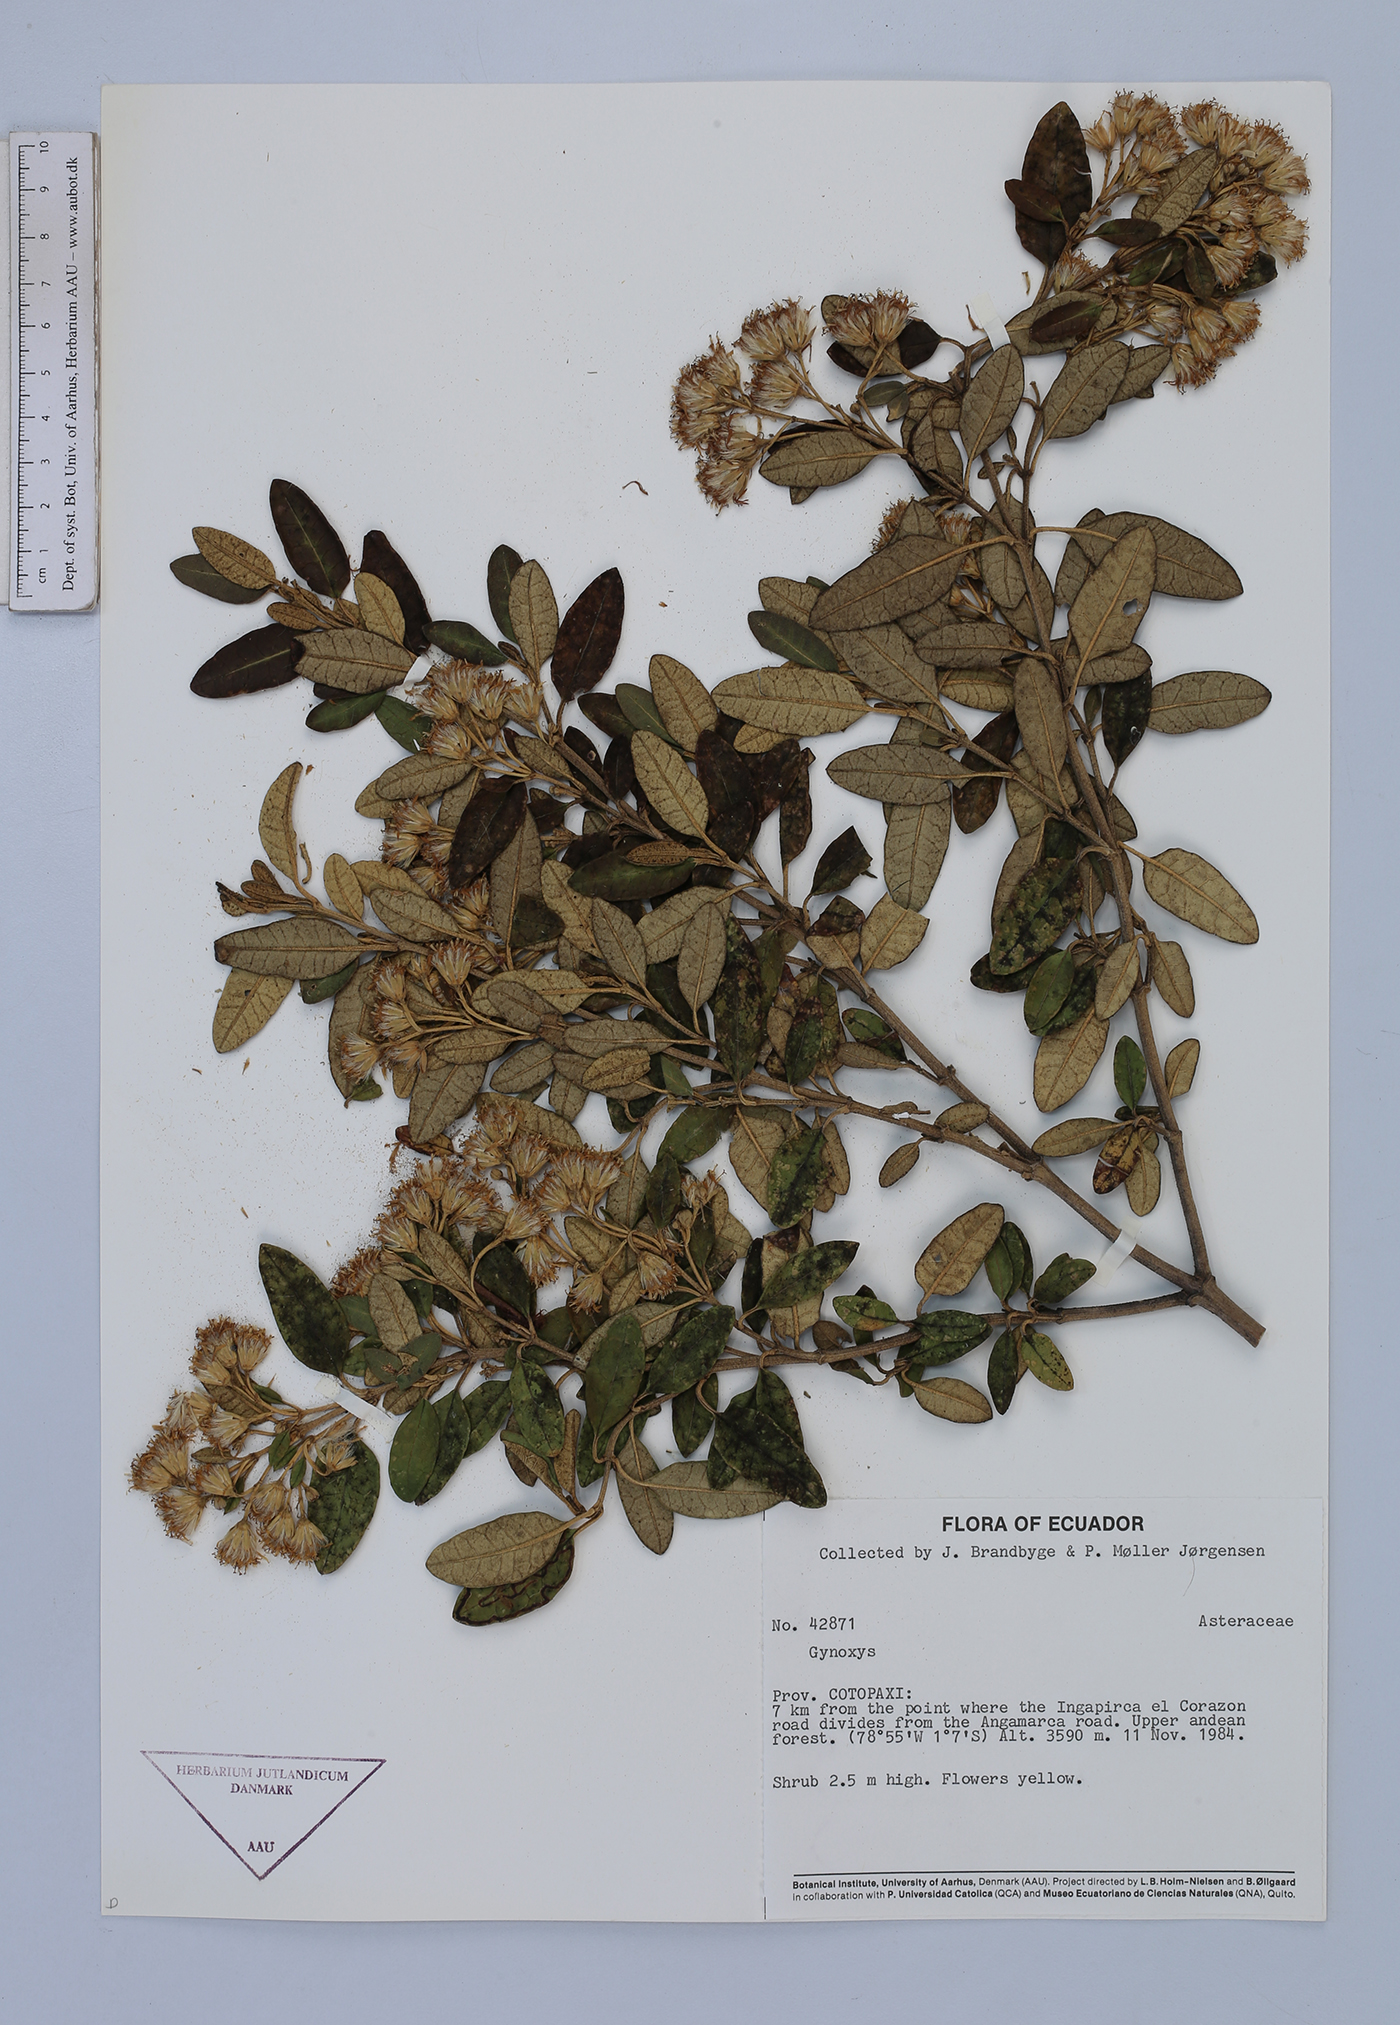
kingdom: Plantae
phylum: Tracheophyta
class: Magnoliopsida
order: Asterales
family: Asteraceae
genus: Gynoxys
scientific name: Gynoxys sodiroi
